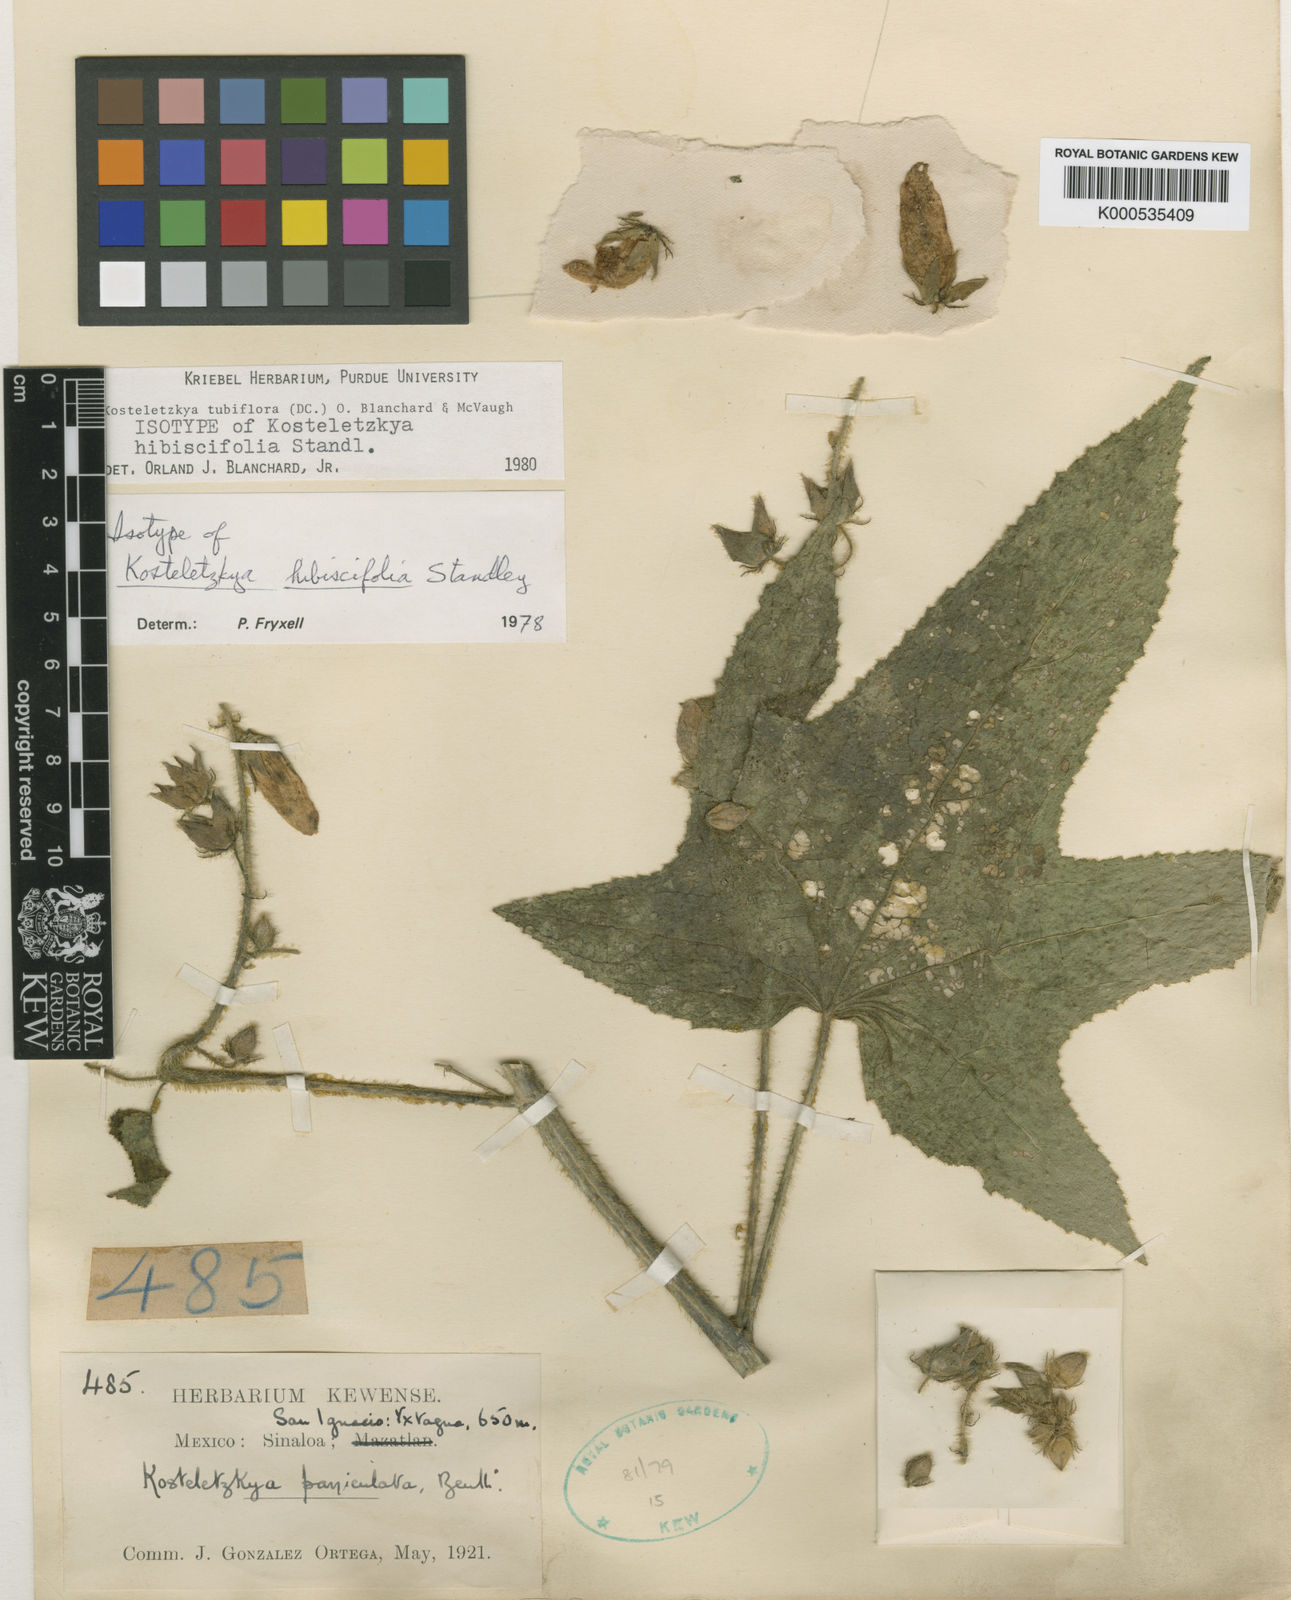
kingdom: Plantae
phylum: Tracheophyta
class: Magnoliopsida
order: Malvales
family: Malvaceae
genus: Kosteletzkya
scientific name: Kosteletzkya tubiflora
